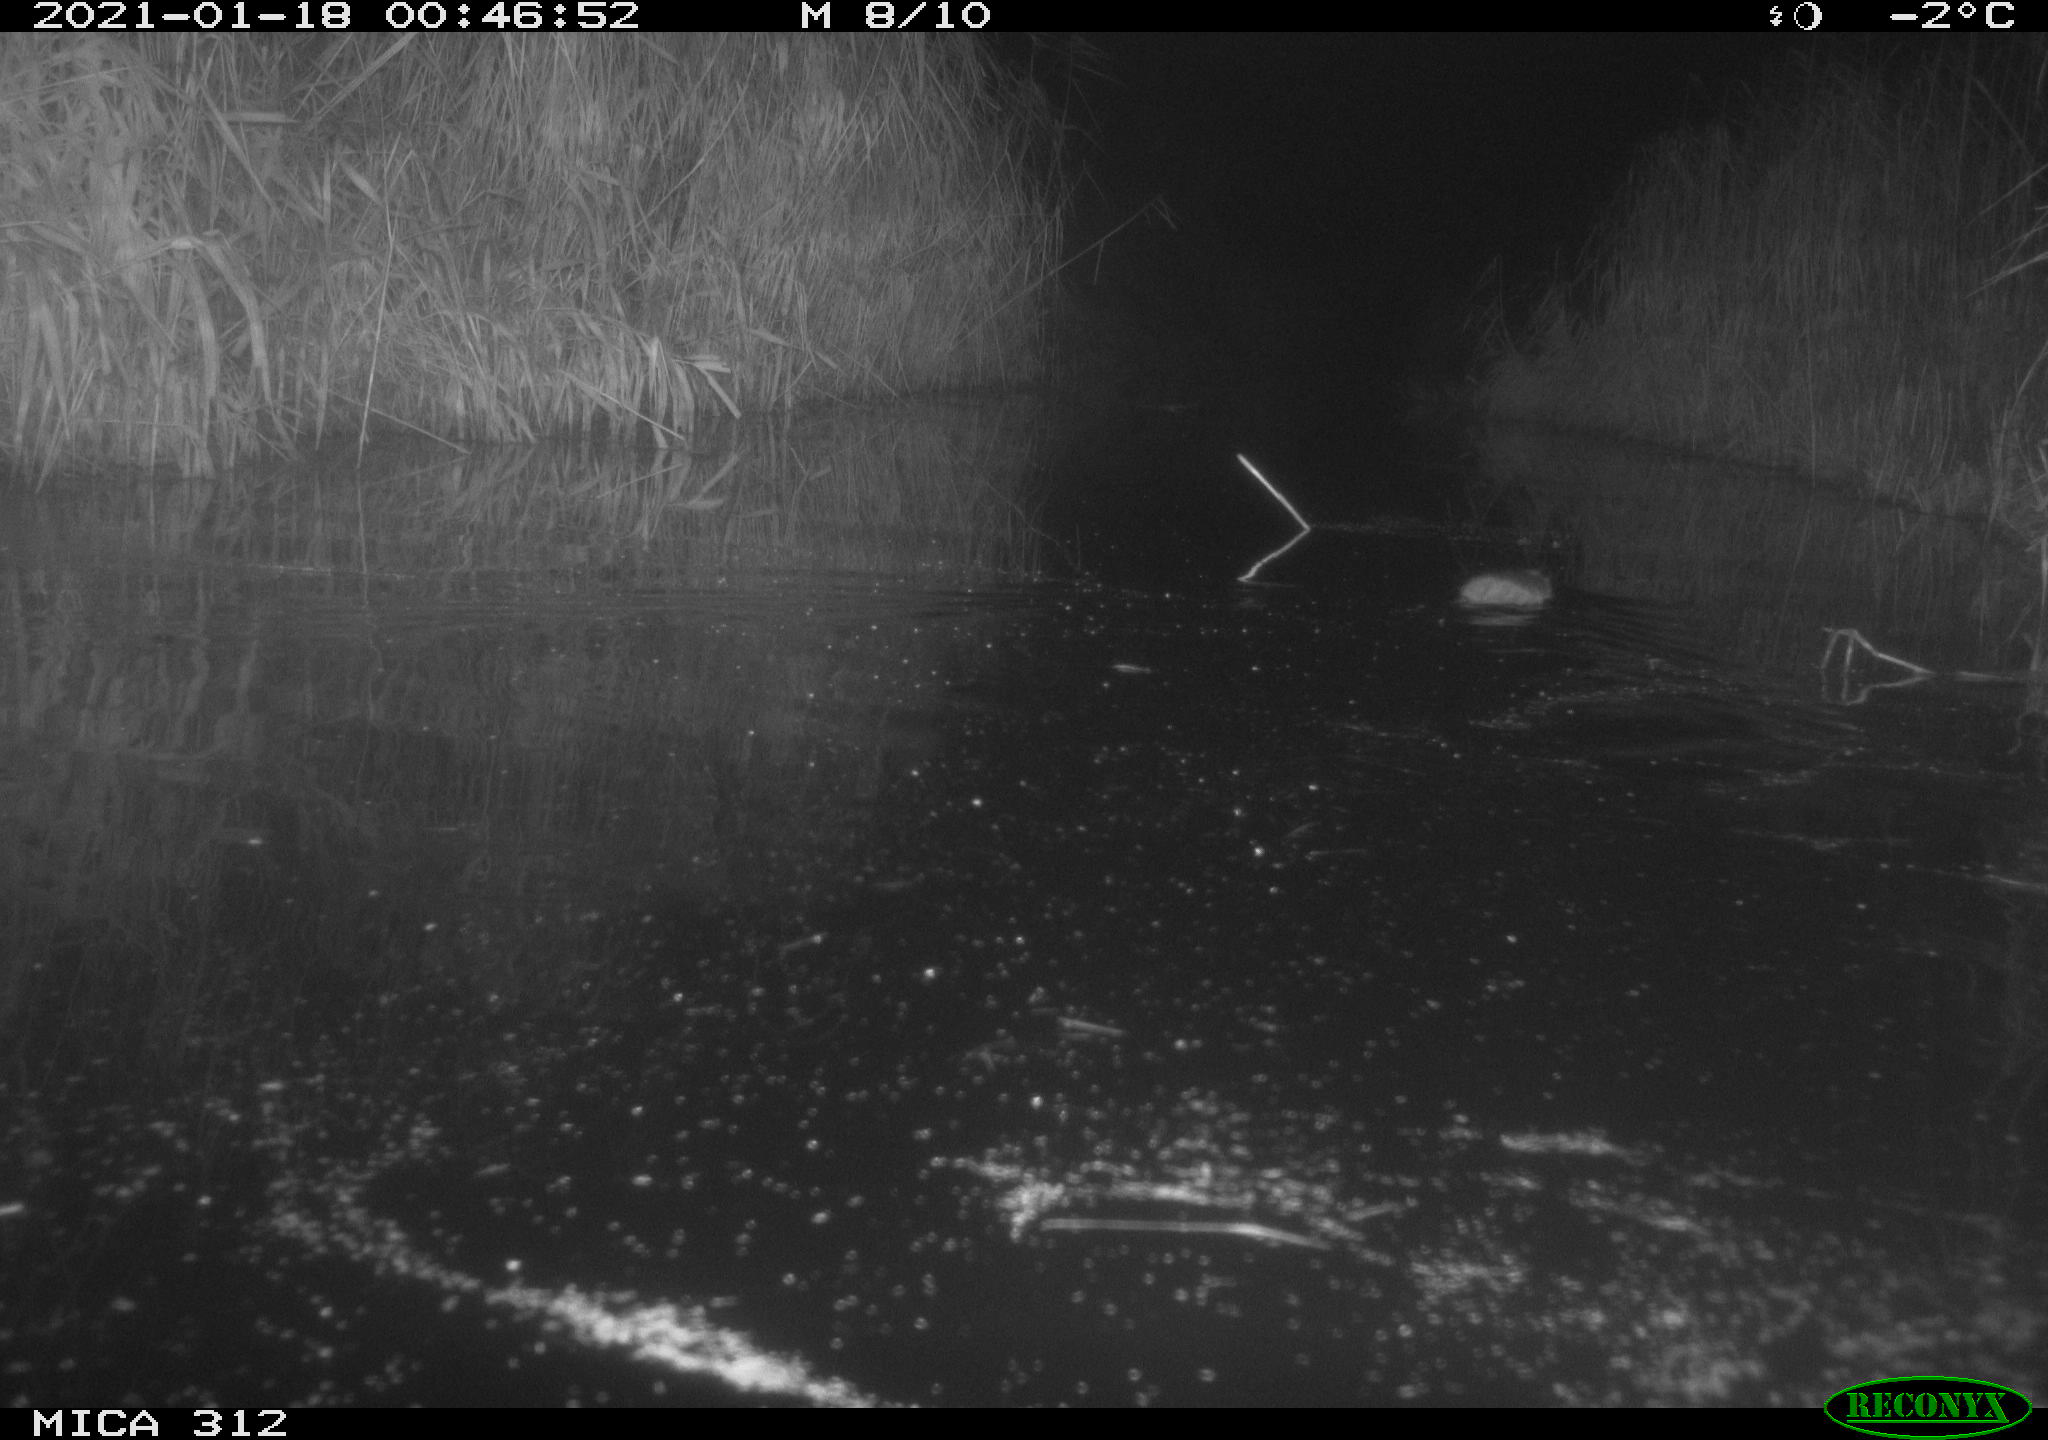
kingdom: Animalia
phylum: Chordata
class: Mammalia
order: Rodentia
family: Muridae
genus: Rattus
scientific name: Rattus norvegicus
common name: Brown rat
